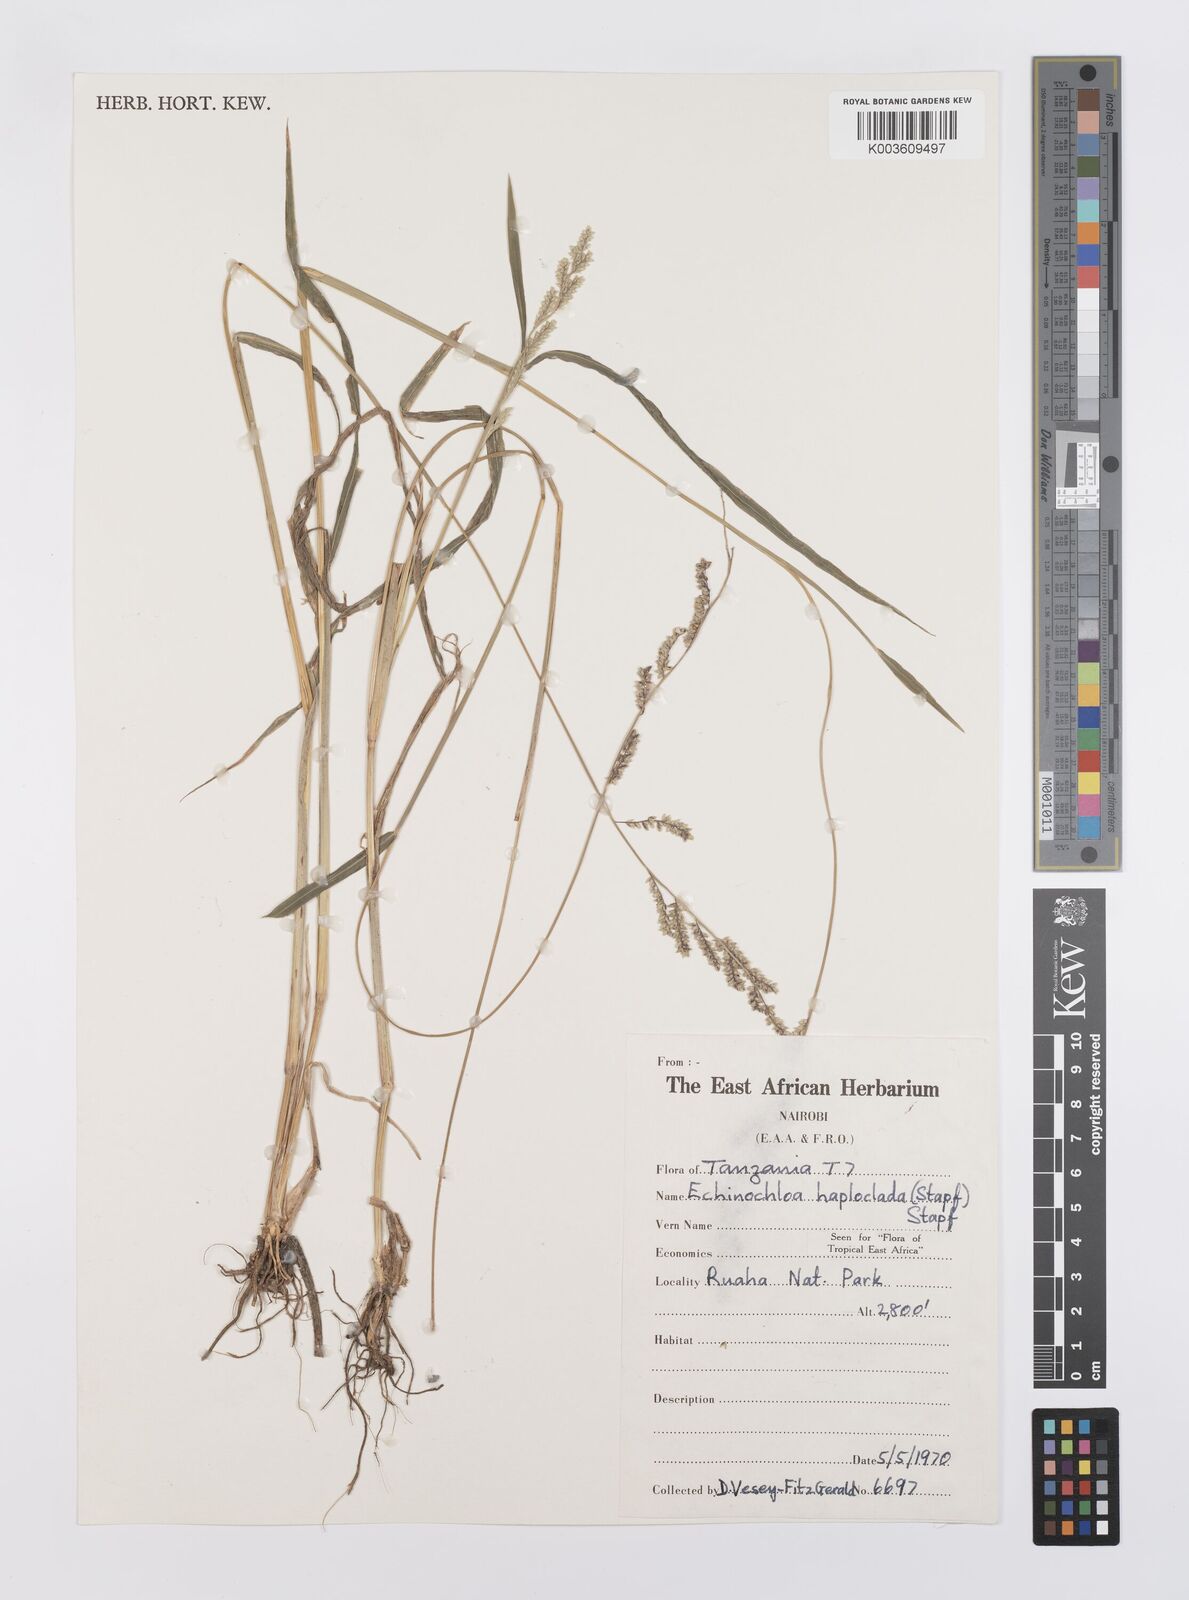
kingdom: Plantae
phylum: Tracheophyta
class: Liliopsida
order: Poales
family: Poaceae
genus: Echinochloa
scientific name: Echinochloa haploclada
